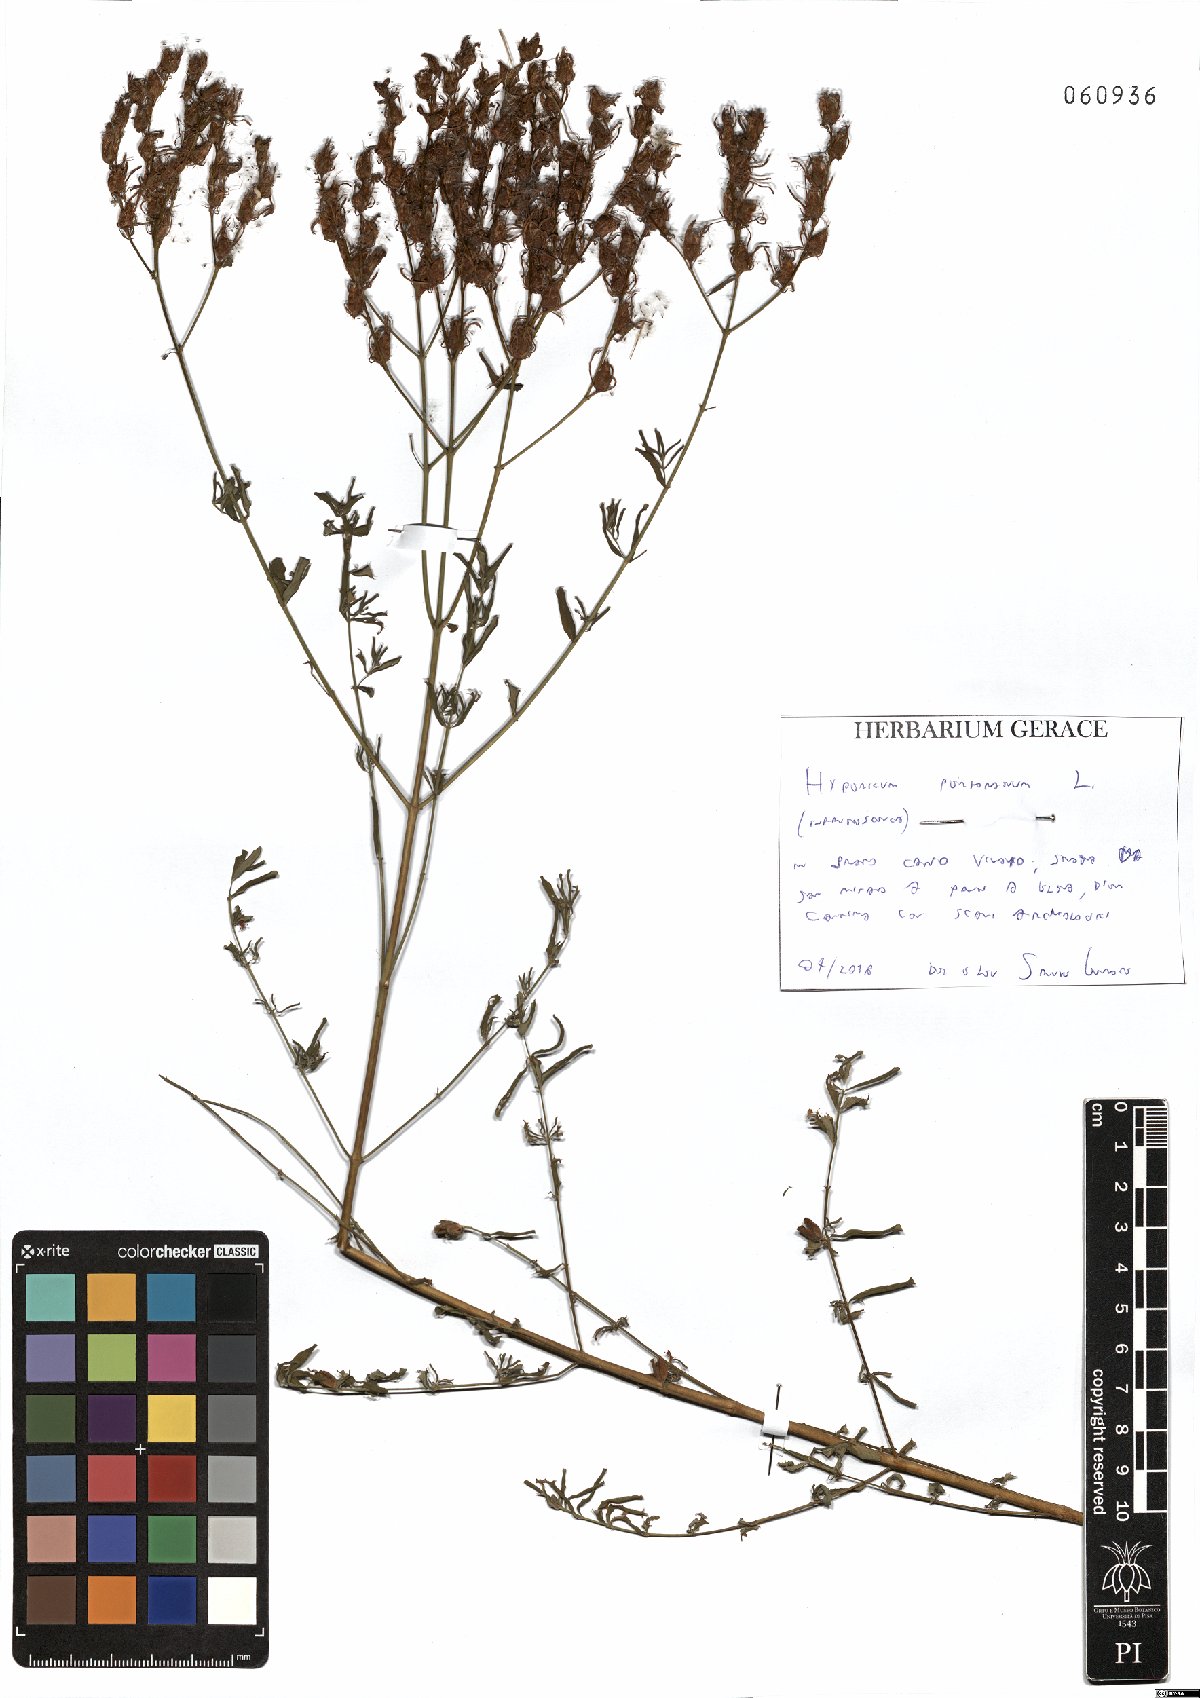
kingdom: Plantae
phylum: Tracheophyta
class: Magnoliopsida
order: Malpighiales
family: Hypericaceae
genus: Hypericum
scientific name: Hypericum perfoliatum
